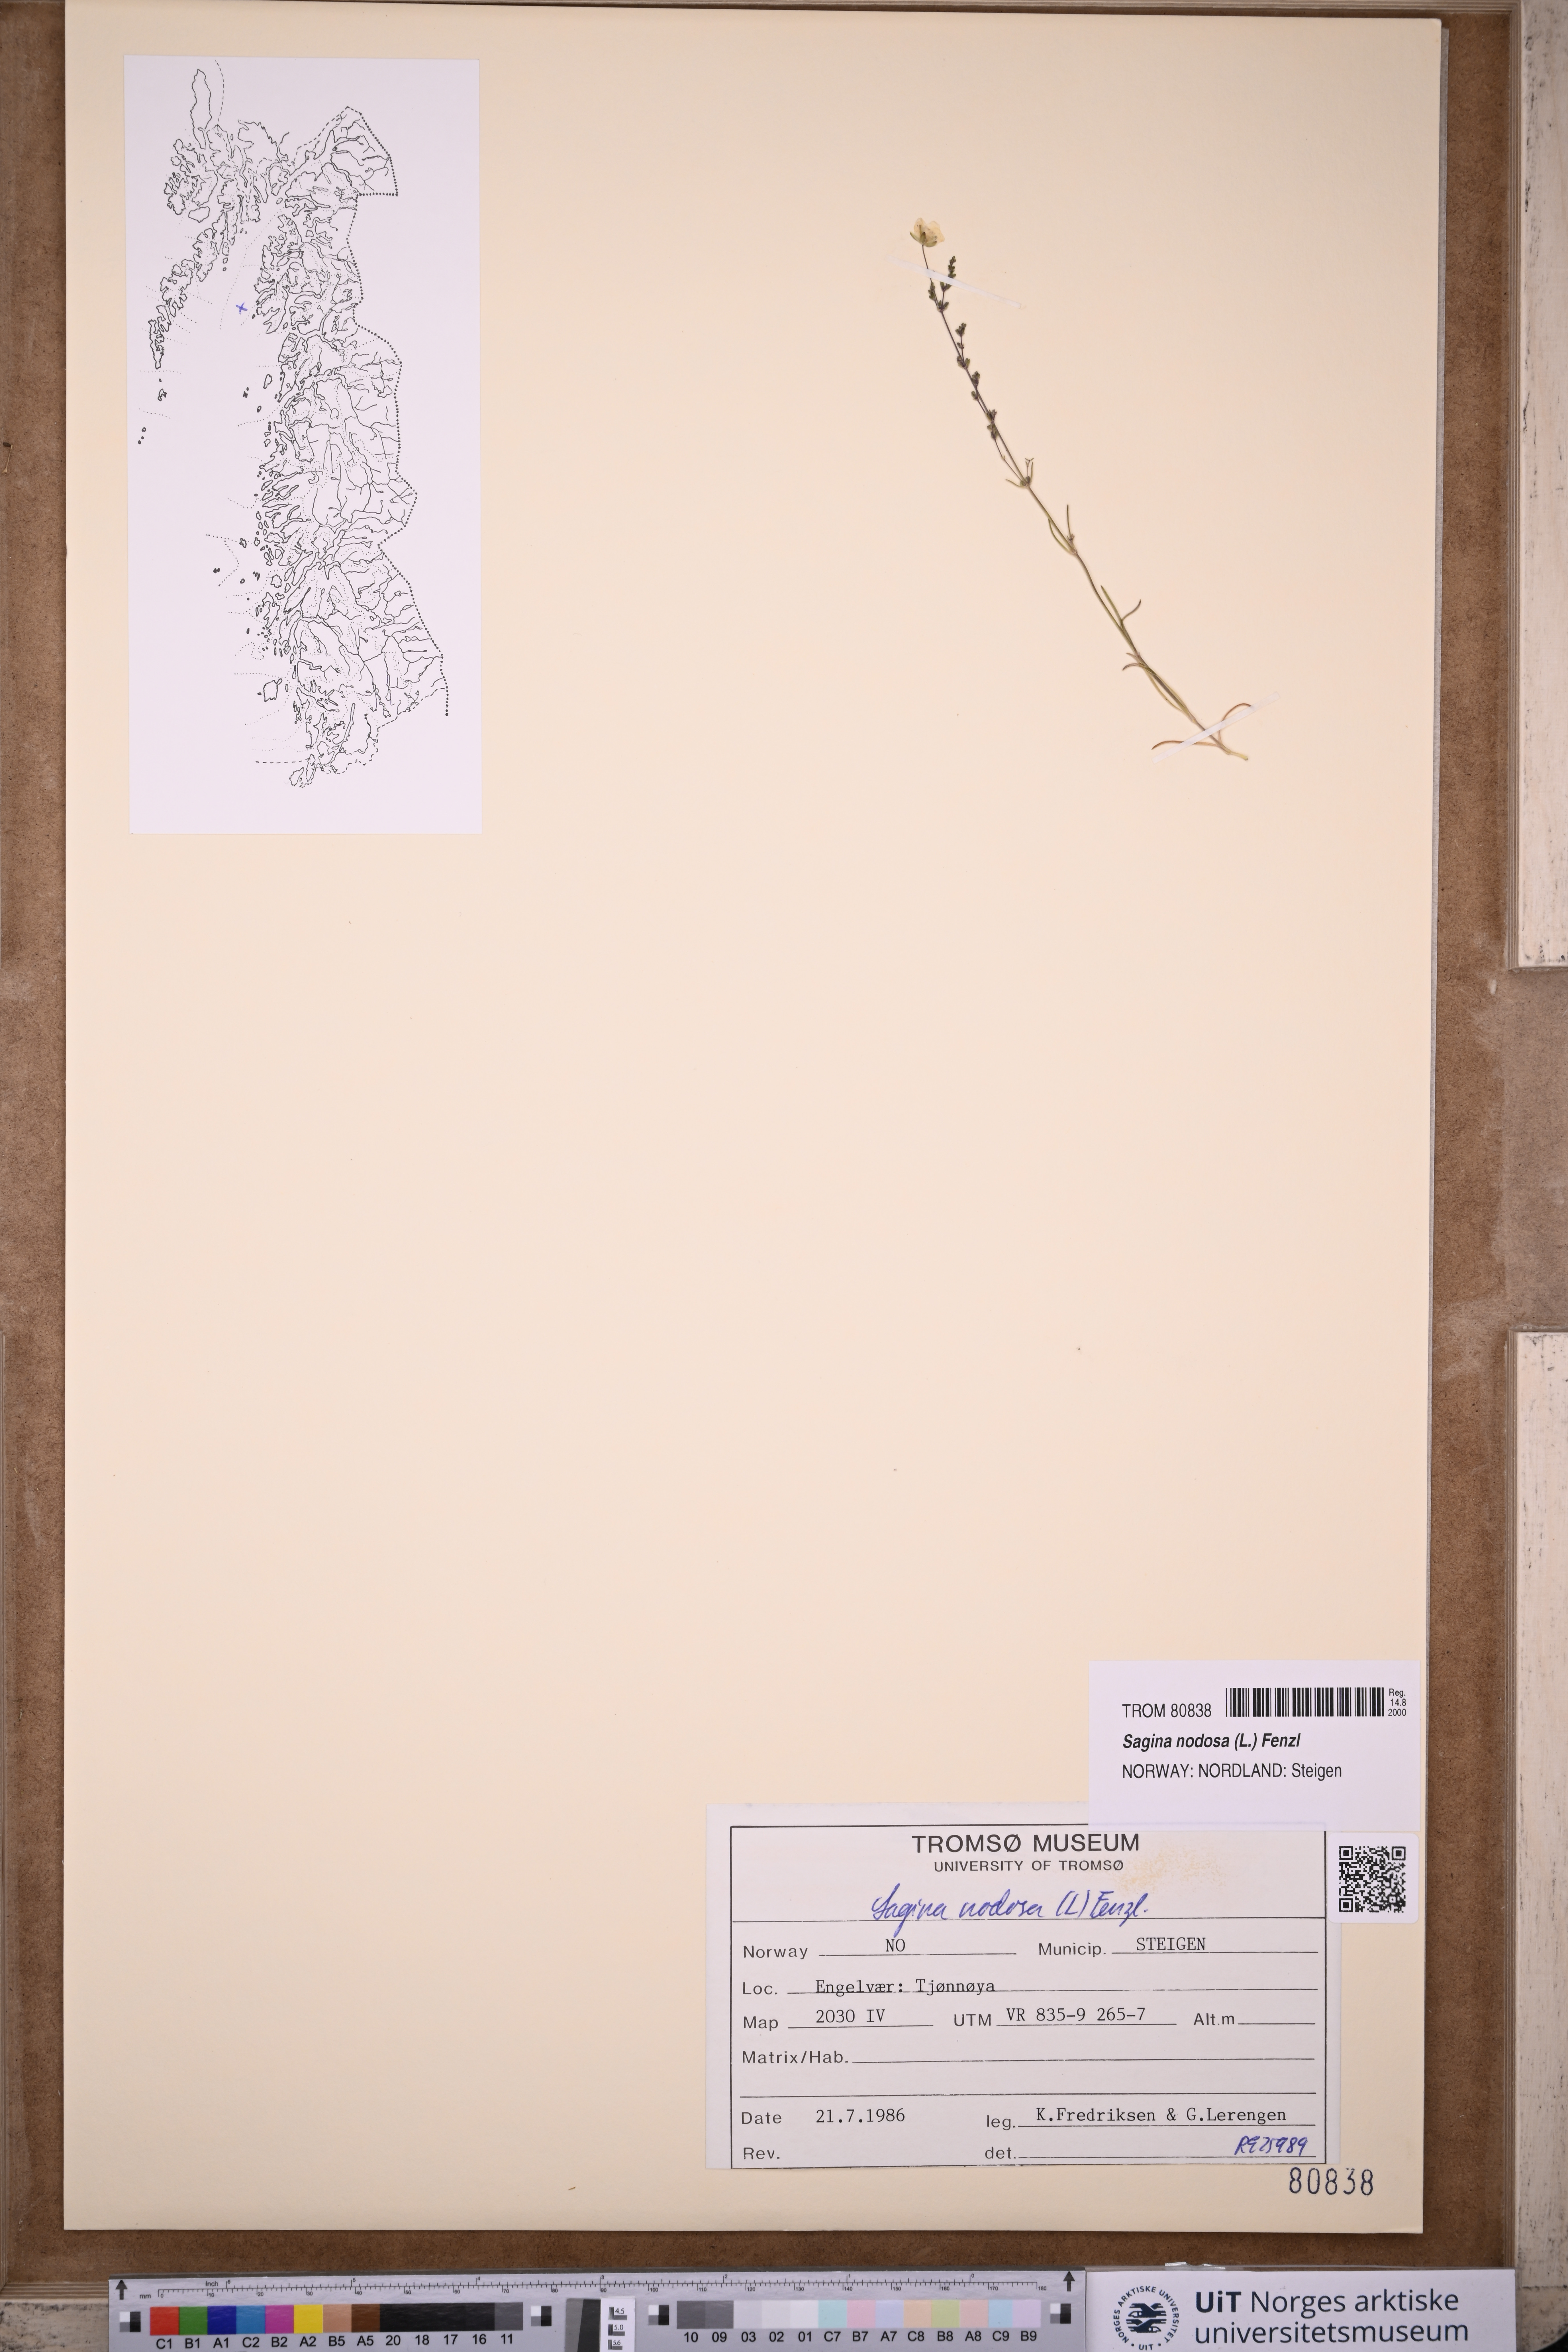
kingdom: Plantae
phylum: Tracheophyta
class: Magnoliopsida
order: Caryophyllales
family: Caryophyllaceae
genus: Sagina
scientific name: Sagina nodosa
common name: Knotted pearlwort
